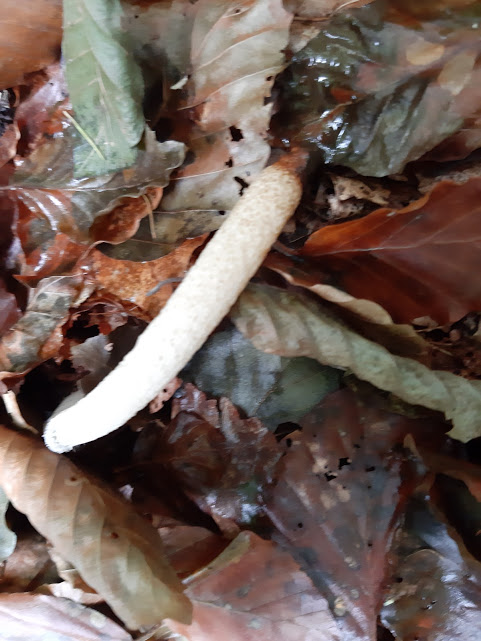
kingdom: Fungi
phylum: Basidiomycota
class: Agaricomycetes
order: Phallales
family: Phallaceae
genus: Mutinus
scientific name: Mutinus caninus
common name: hunde-stinksvamp
